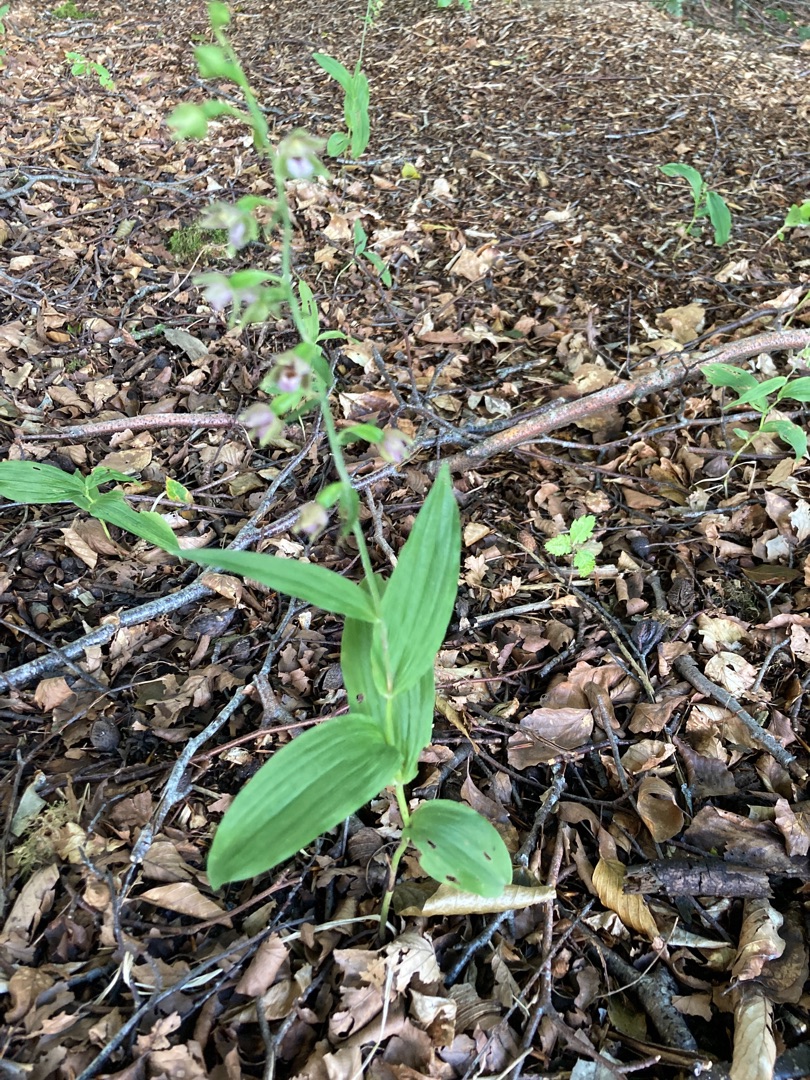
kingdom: Plantae
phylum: Tracheophyta
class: Liliopsida
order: Asparagales
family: Orchidaceae
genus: Epipactis
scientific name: Epipactis helleborine
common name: Skov-hullæbe
